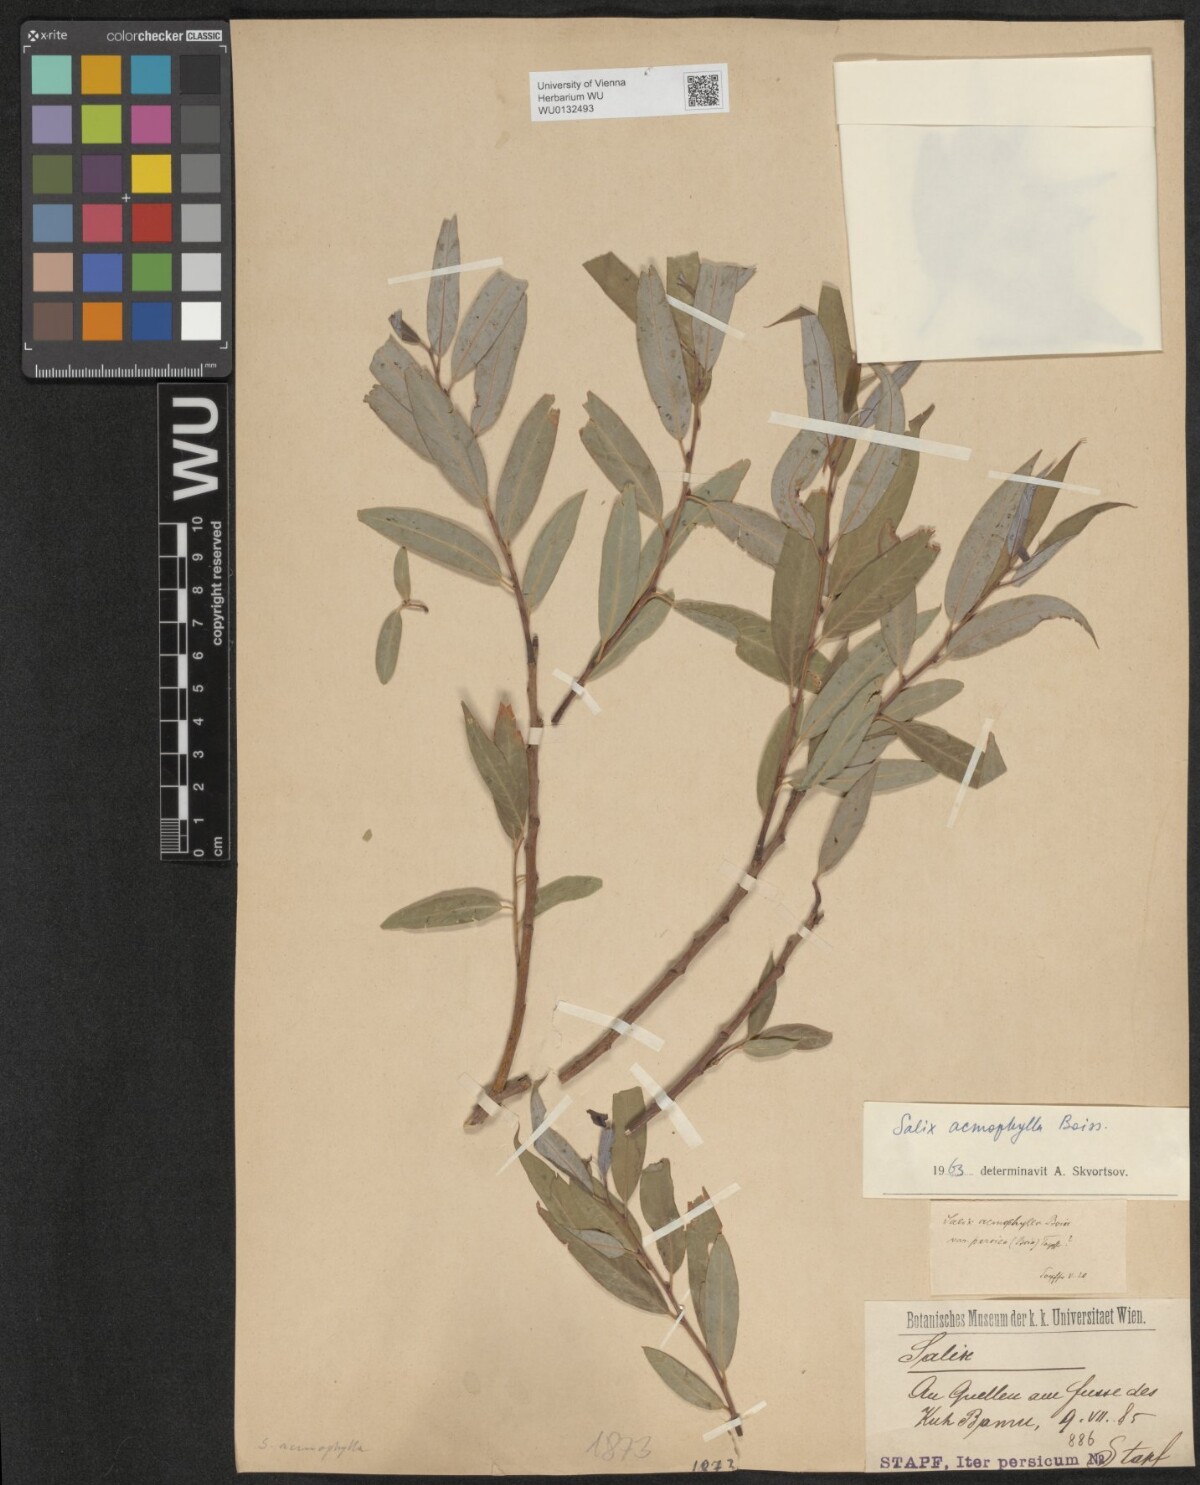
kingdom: Plantae
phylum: Tracheophyta
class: Magnoliopsida
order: Malpighiales
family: Salicaceae
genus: Salix
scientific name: Salix acmophylla
